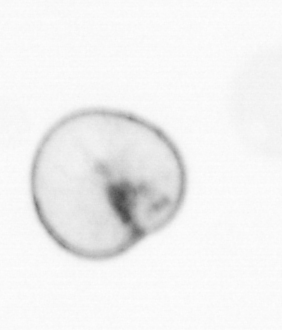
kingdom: Chromista
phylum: Myzozoa
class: Dinophyceae
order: Noctilucales
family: Noctilucaceae
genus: Noctiluca
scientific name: Noctiluca scintillans
